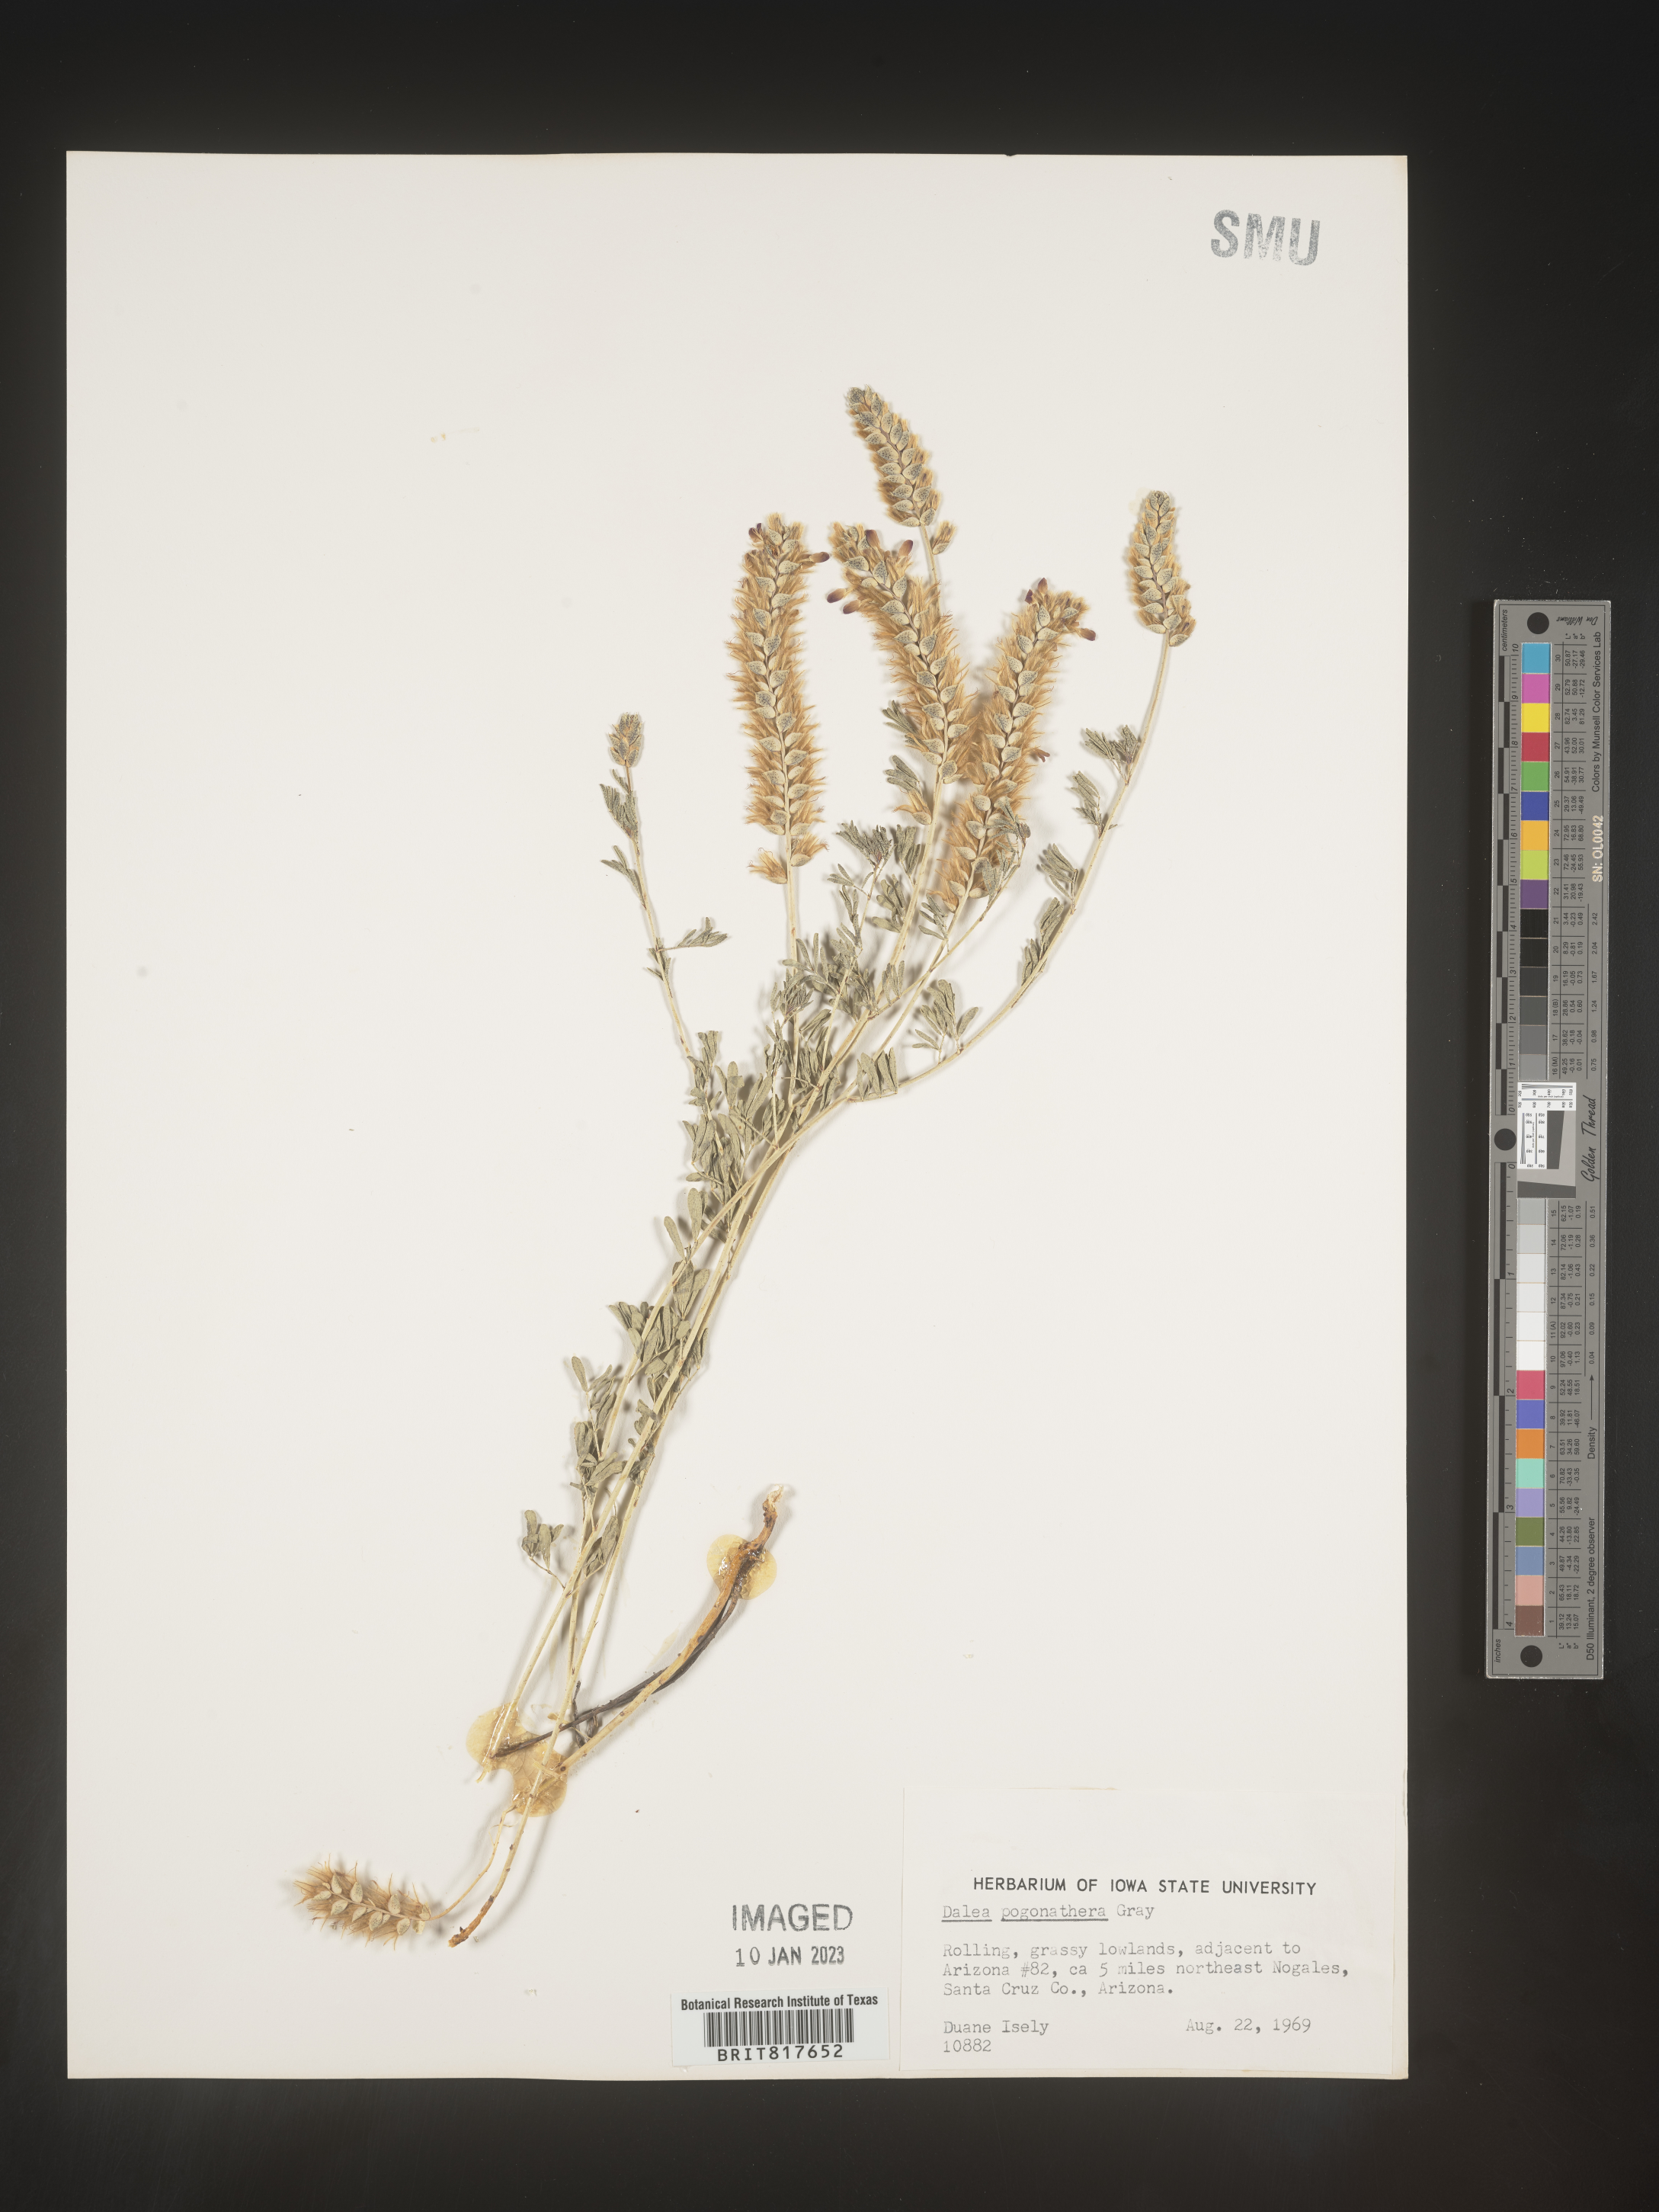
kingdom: Plantae
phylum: Tracheophyta
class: Magnoliopsida
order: Fabales
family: Fabaceae
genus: Dalea
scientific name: Dalea pogonathera
